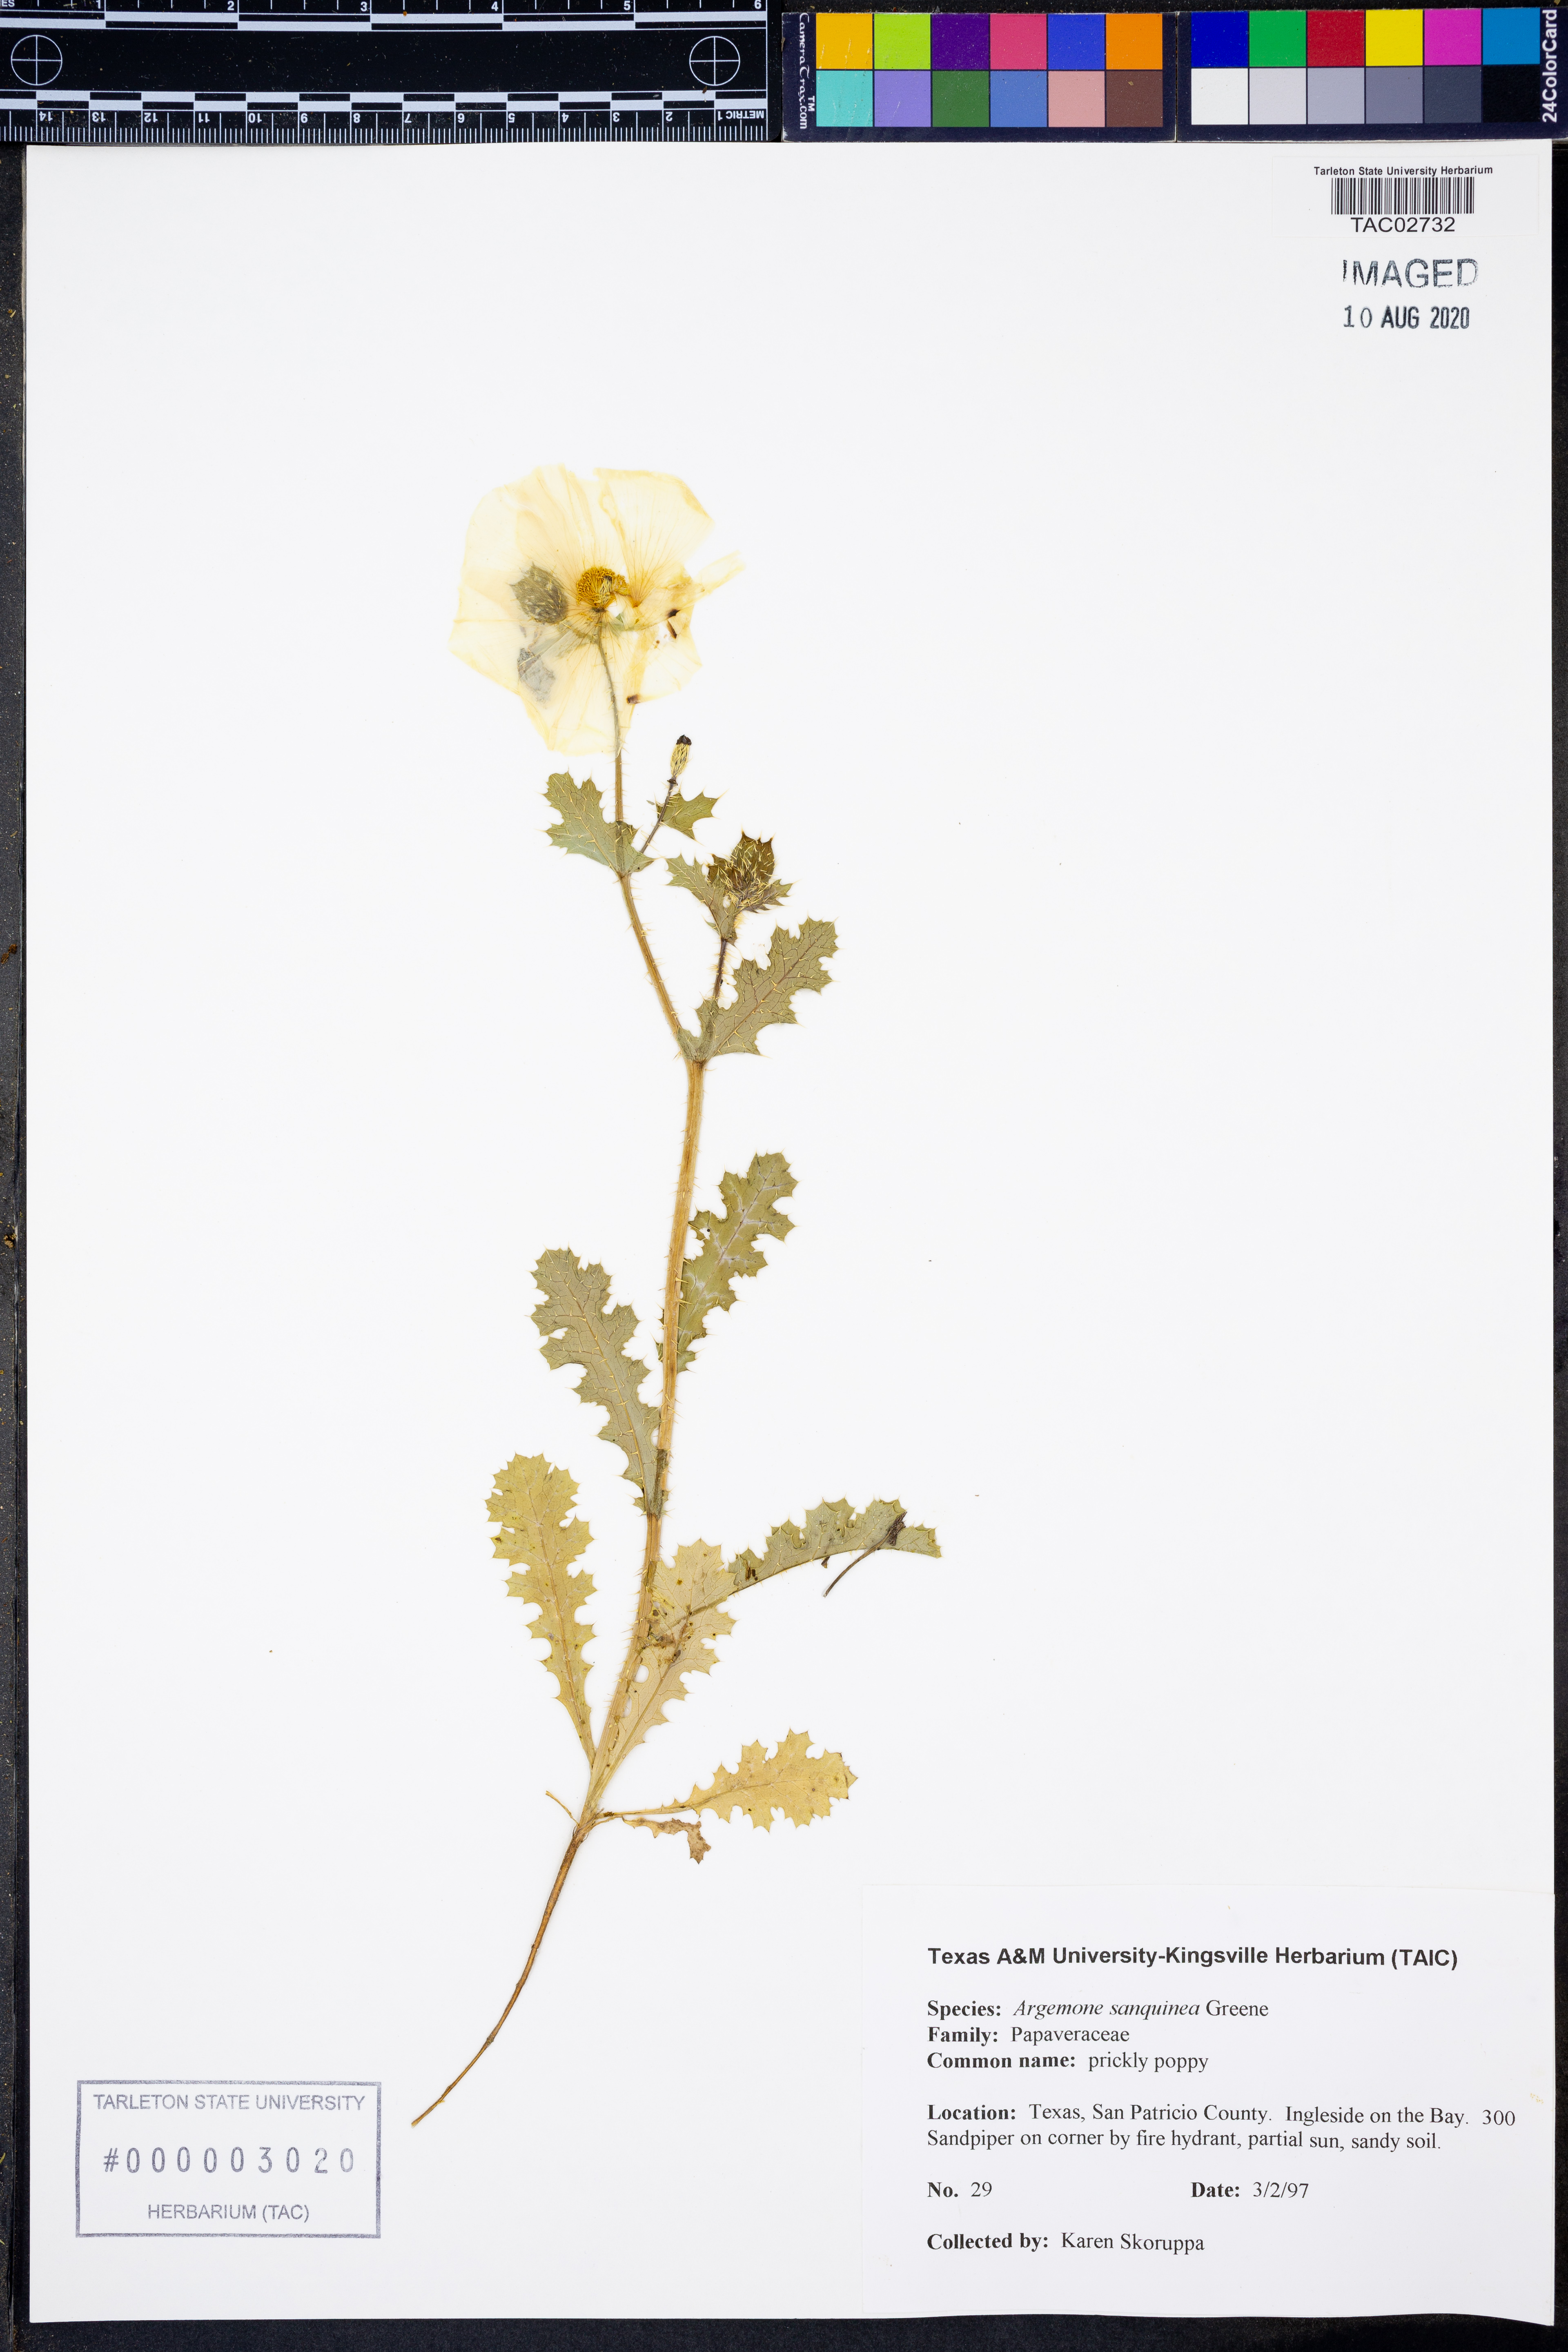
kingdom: Plantae
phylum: Tracheophyta
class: Magnoliopsida
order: Ranunculales
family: Papaveraceae
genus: Argemone
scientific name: Argemone sanguinea
